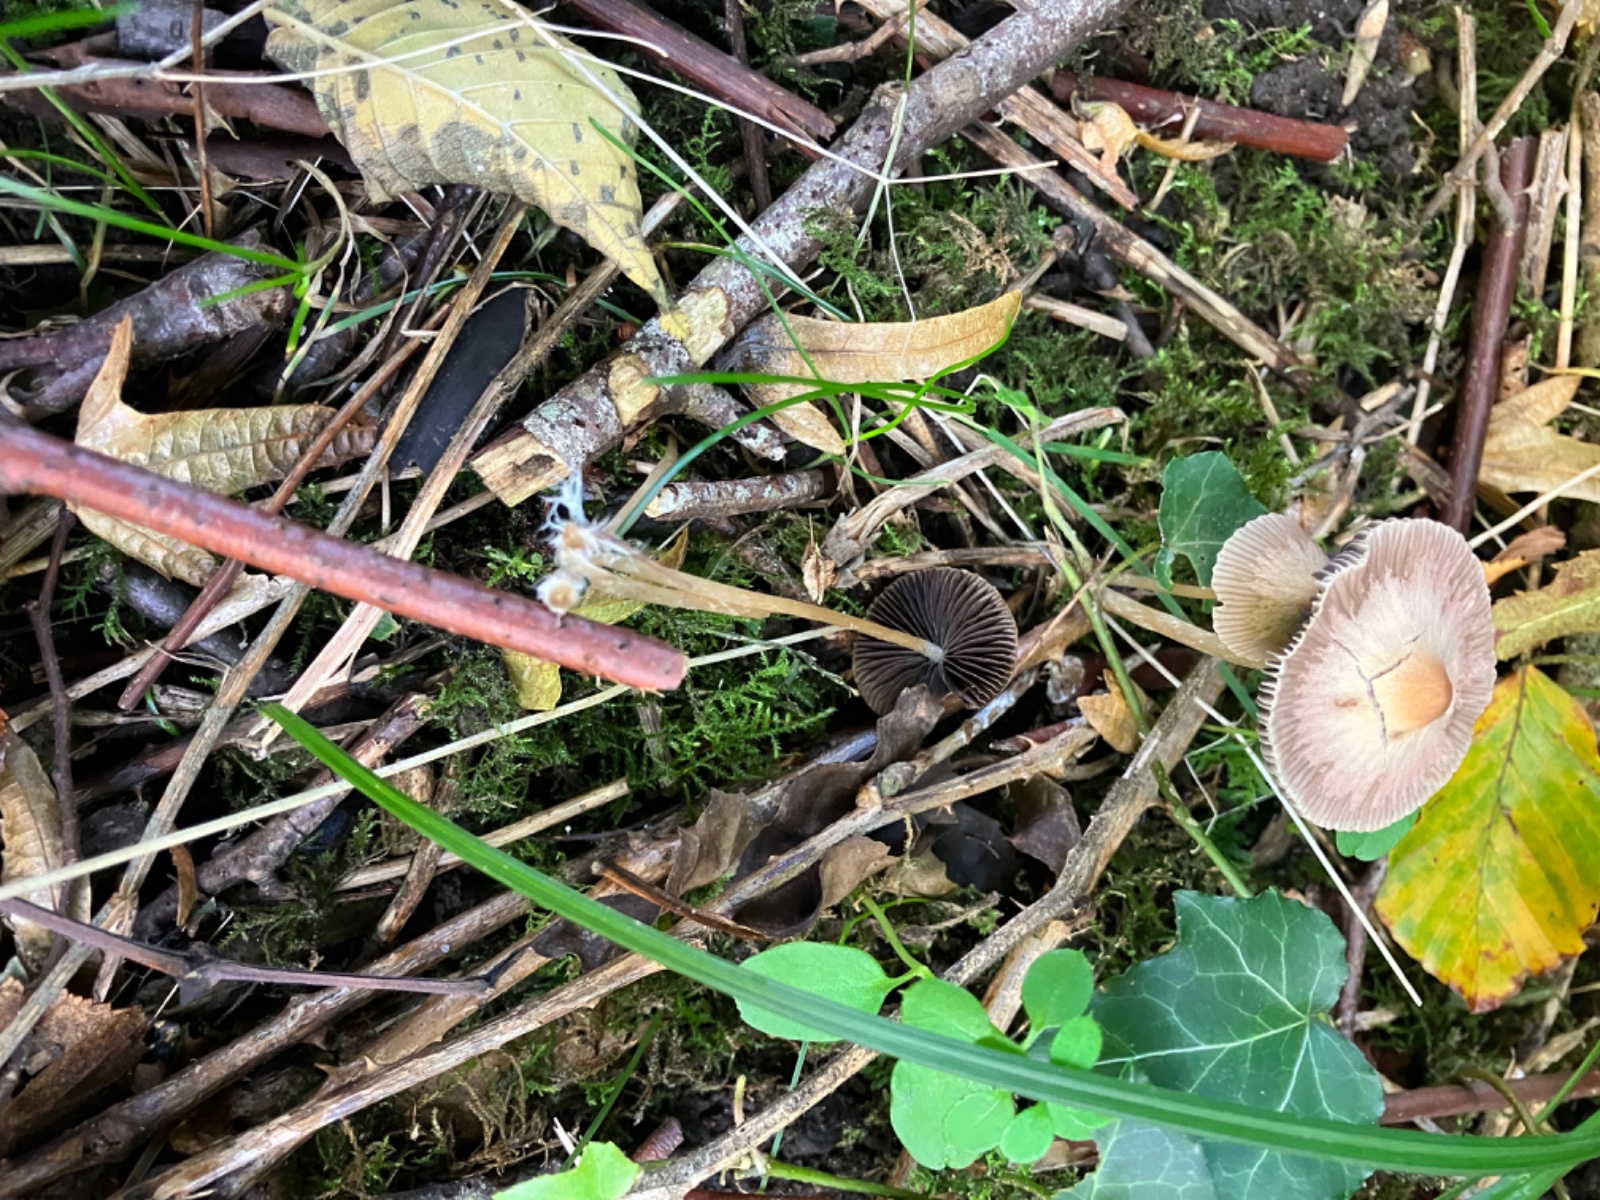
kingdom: Fungi
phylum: Basidiomycota
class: Agaricomycetes
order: Agaricales
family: Psathyrellaceae
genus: Psathyrella
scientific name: Psathyrella
